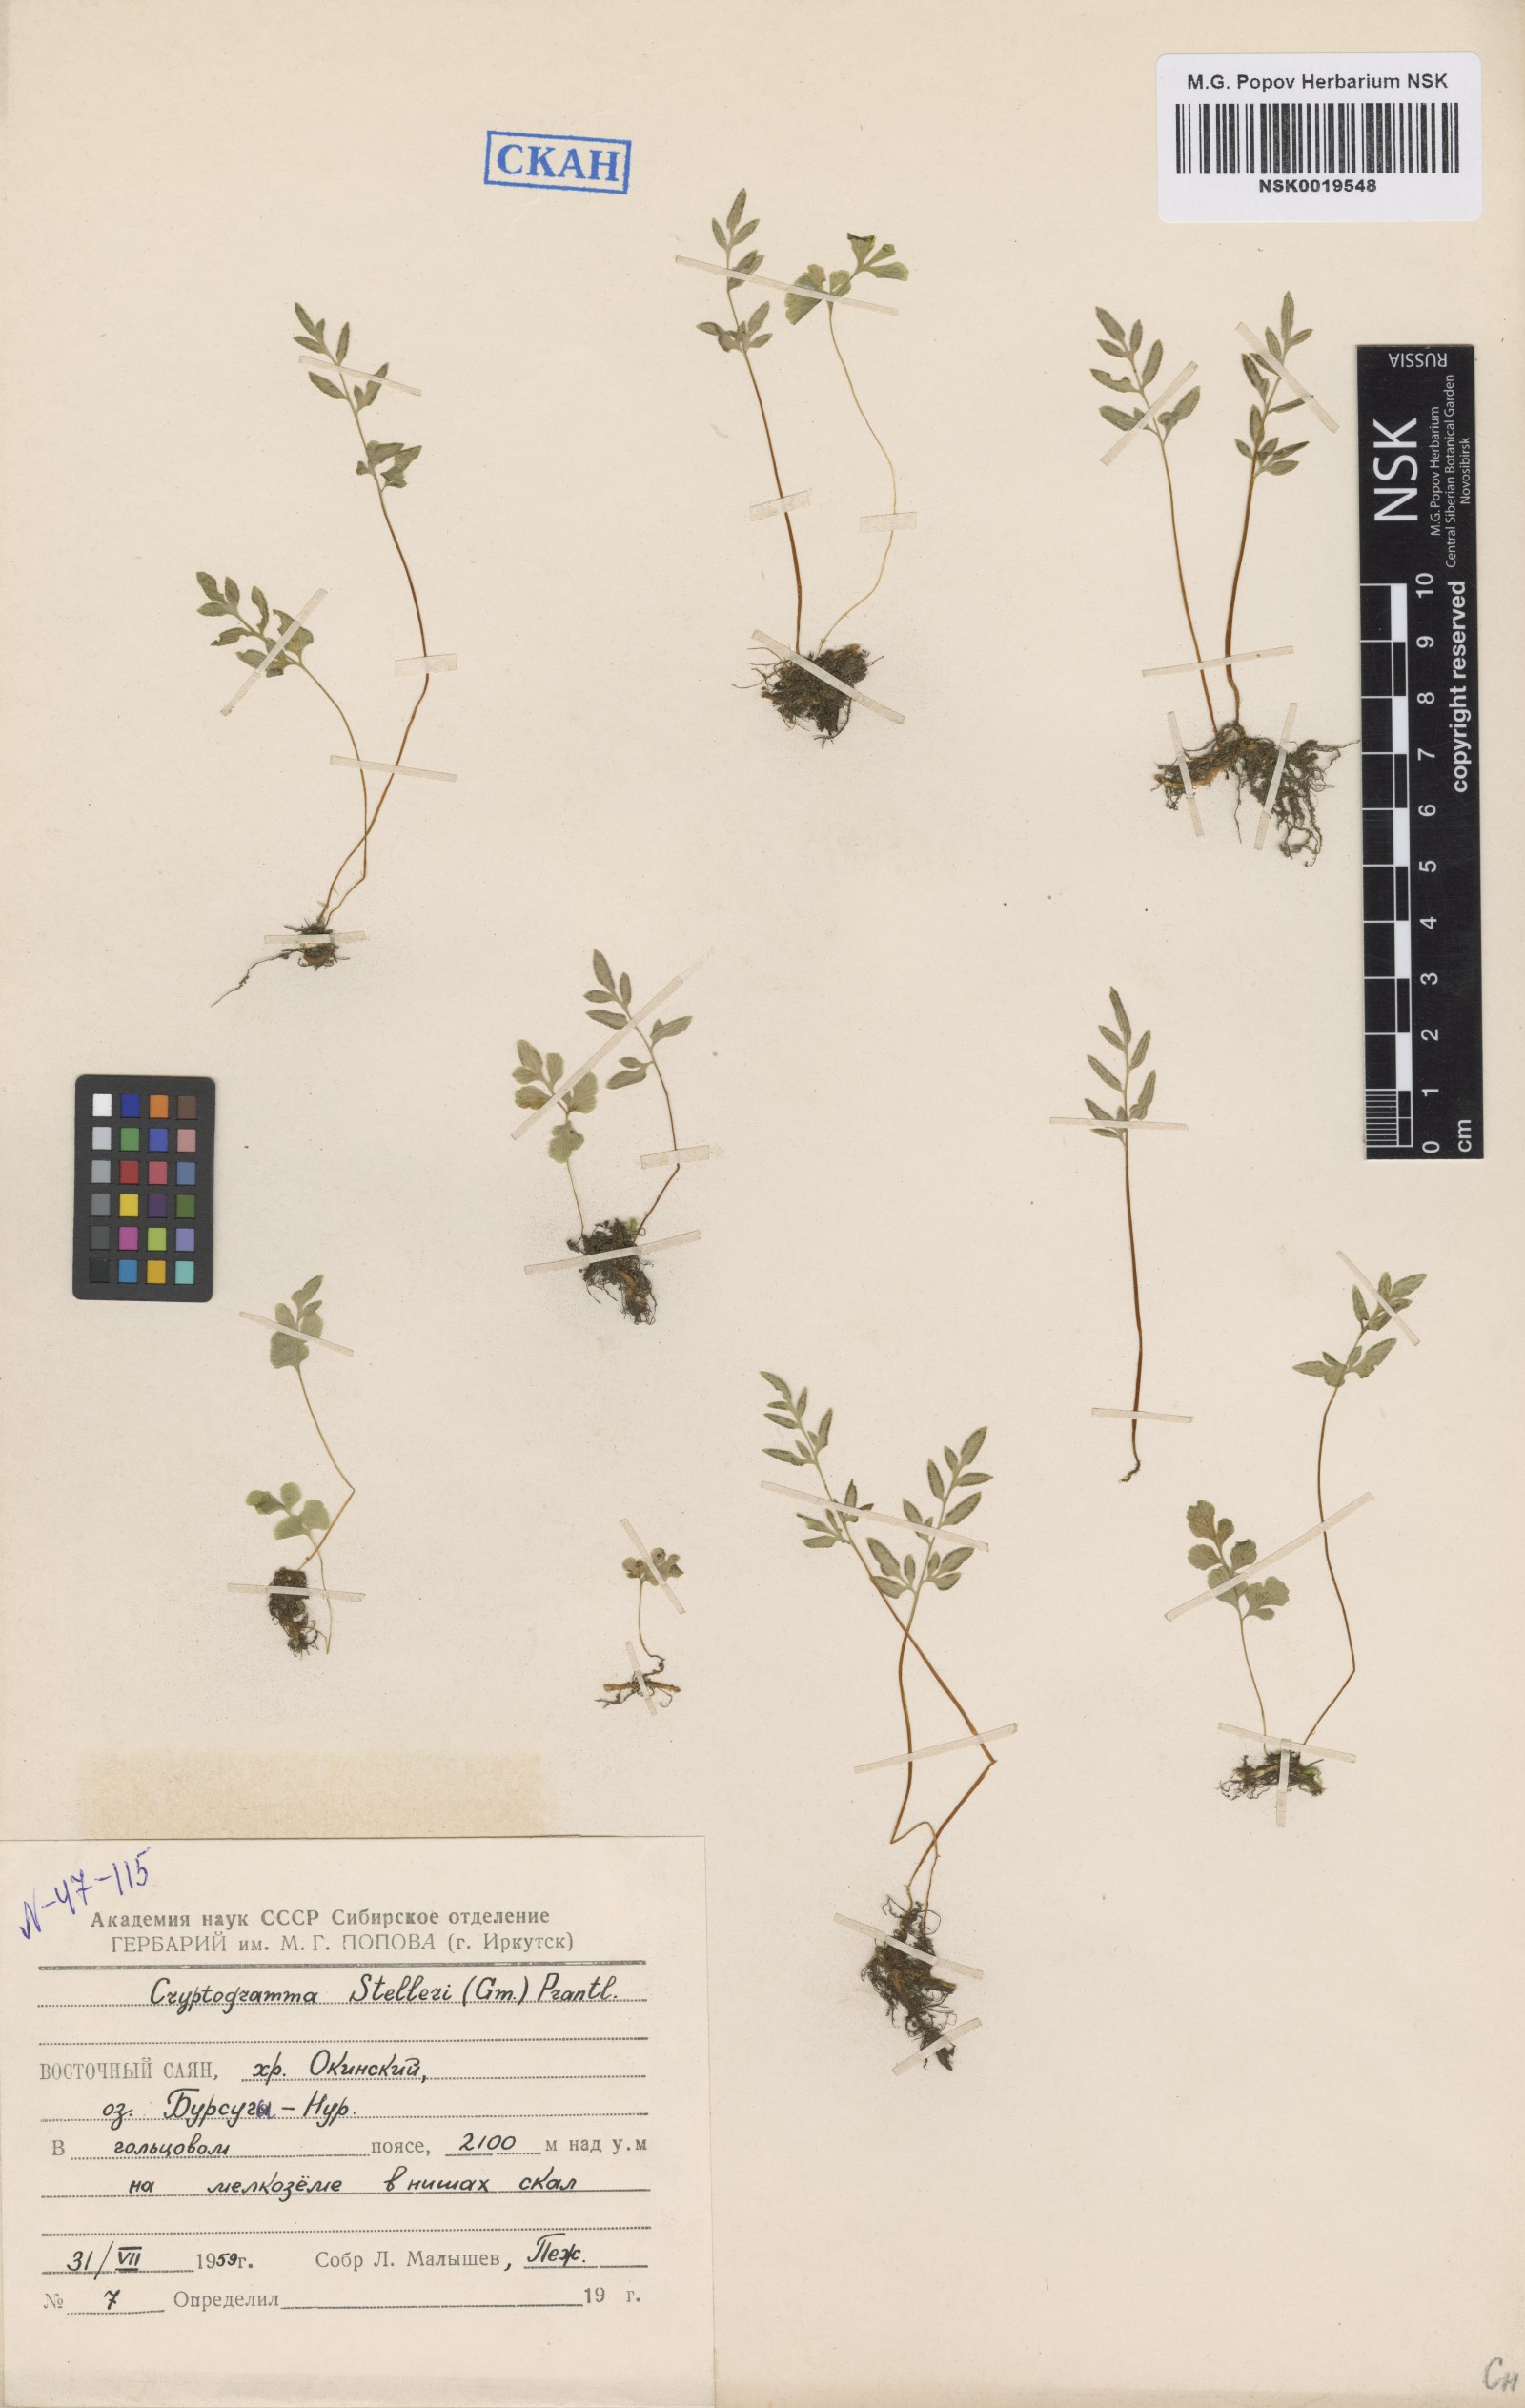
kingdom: Plantae
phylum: Tracheophyta
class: Polypodiopsida
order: Polypodiales
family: Pteridaceae
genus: Cryptogramma
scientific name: Cryptogramma stelleri
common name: Cliff-brake
